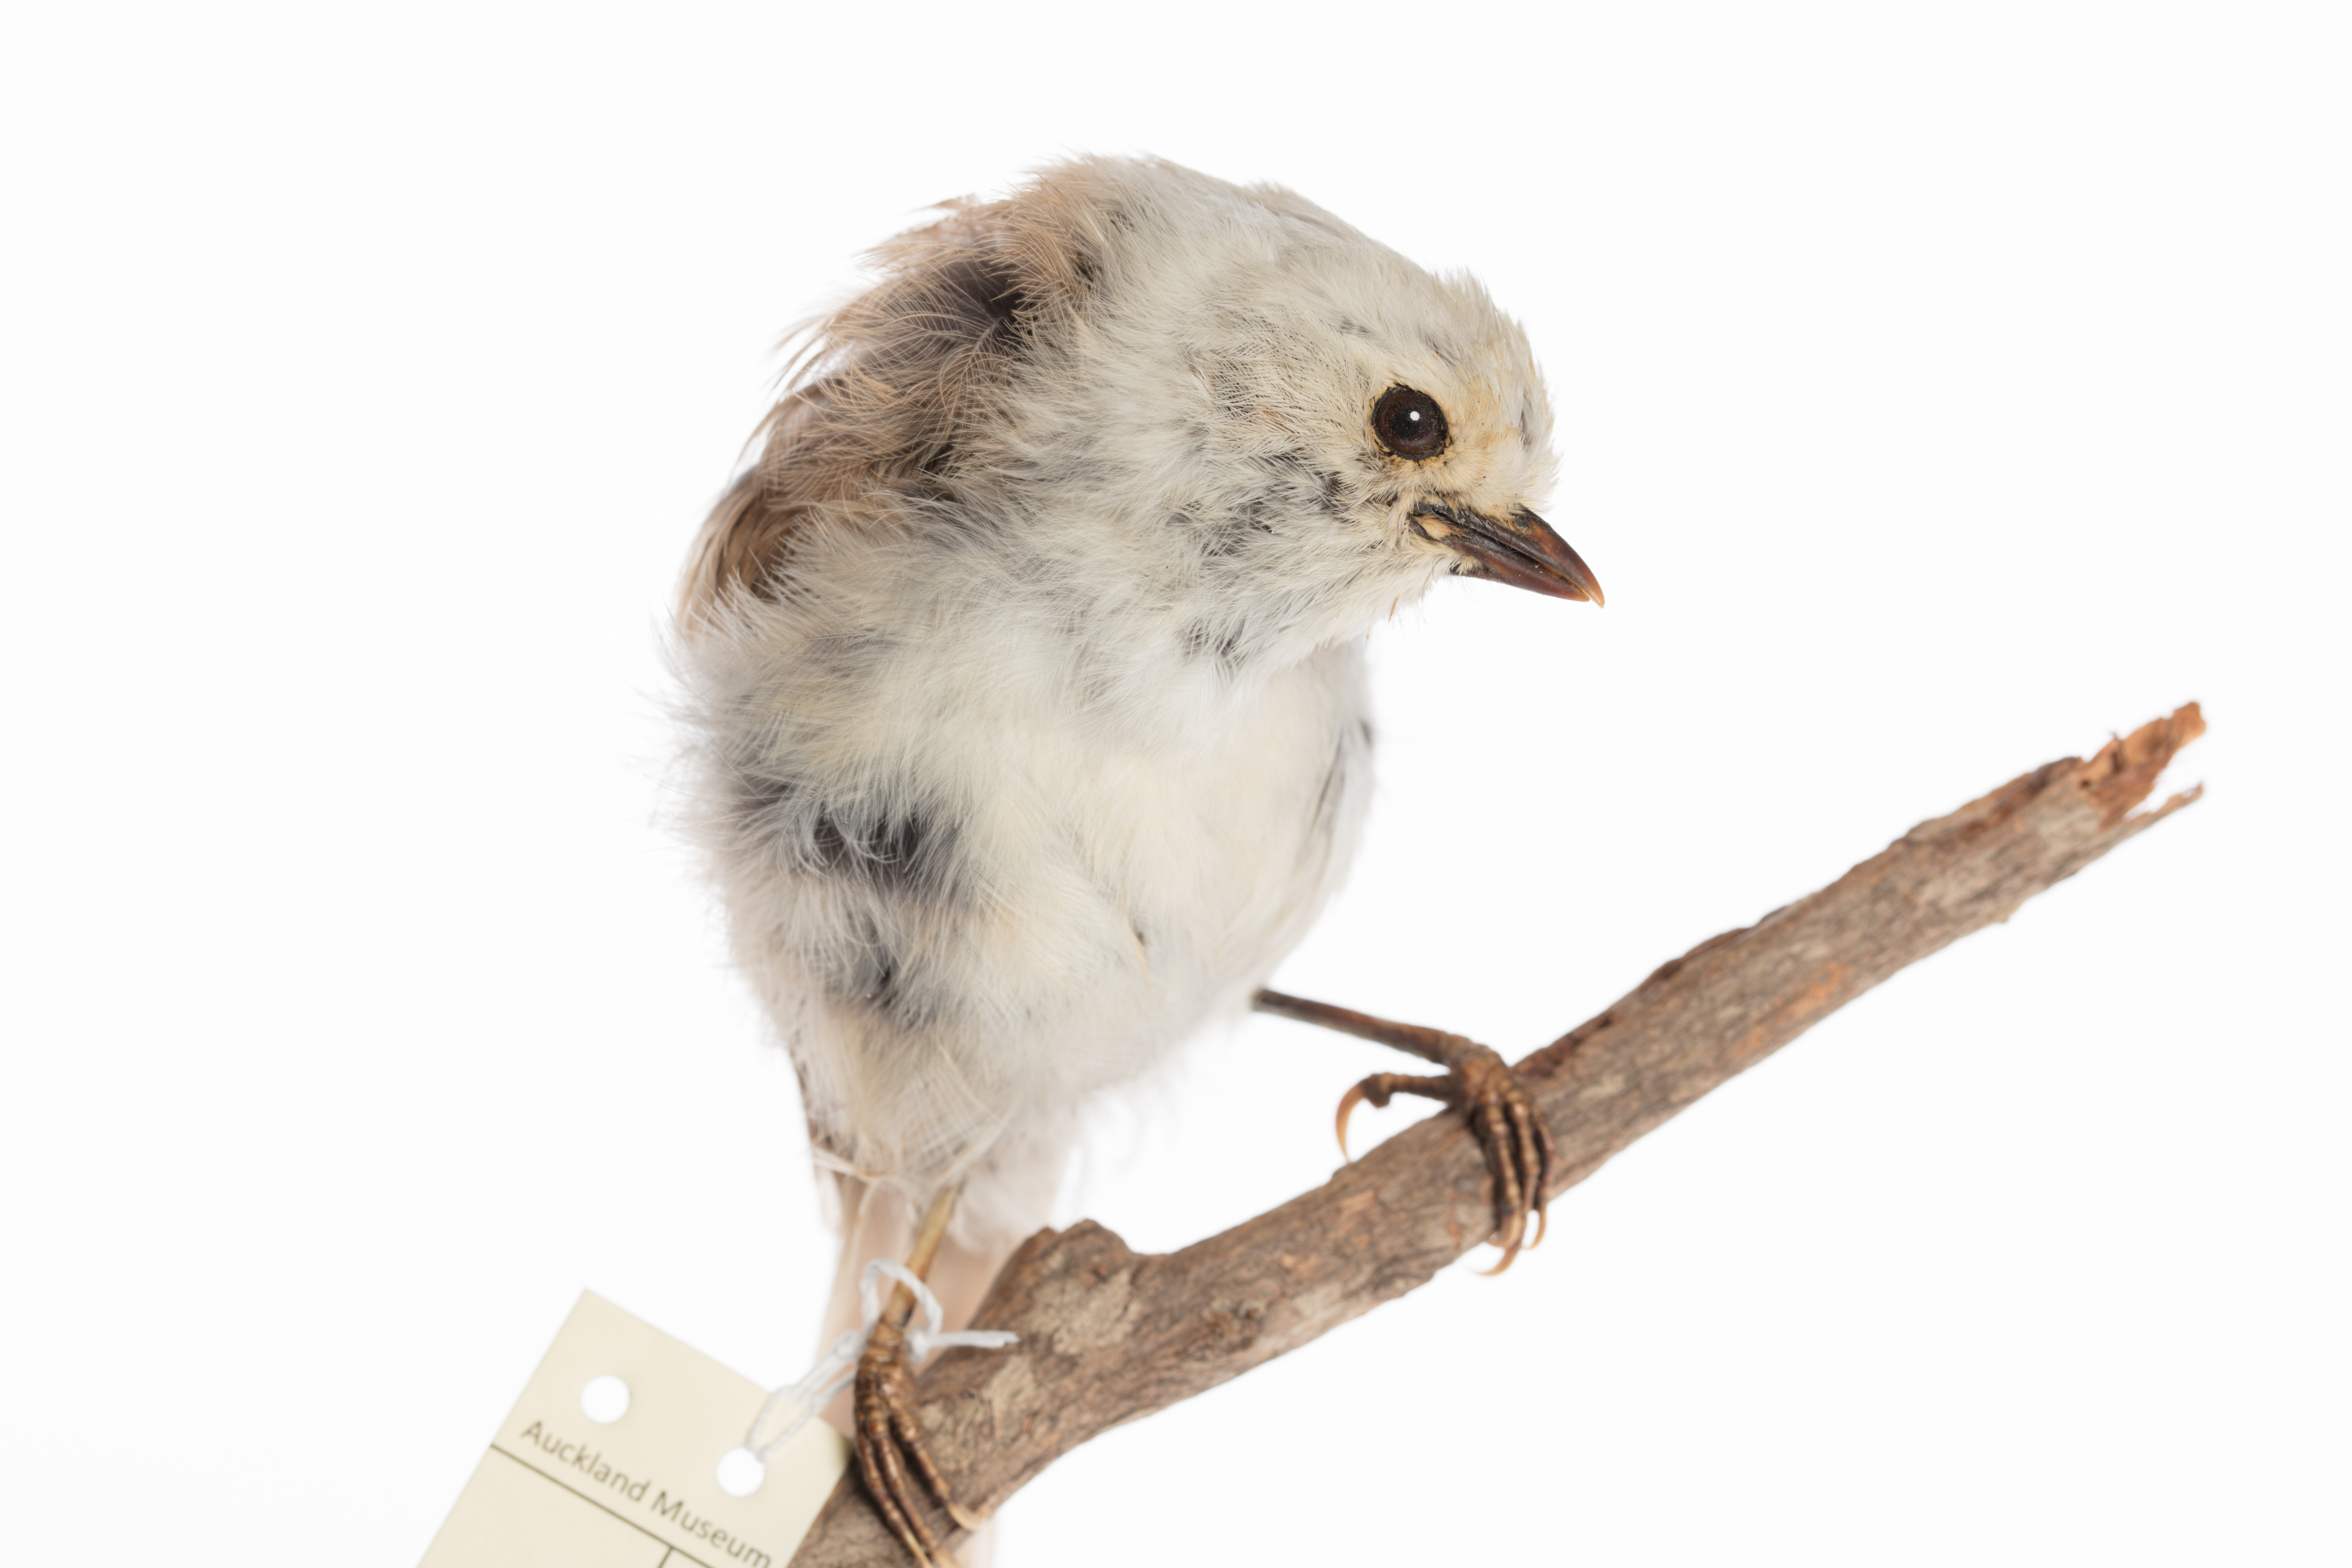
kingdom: Animalia
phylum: Chordata
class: Aves
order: Passeriformes
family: Acanthizidae
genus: Mohoua
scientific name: Mohoua albicilla
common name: Whitehead
